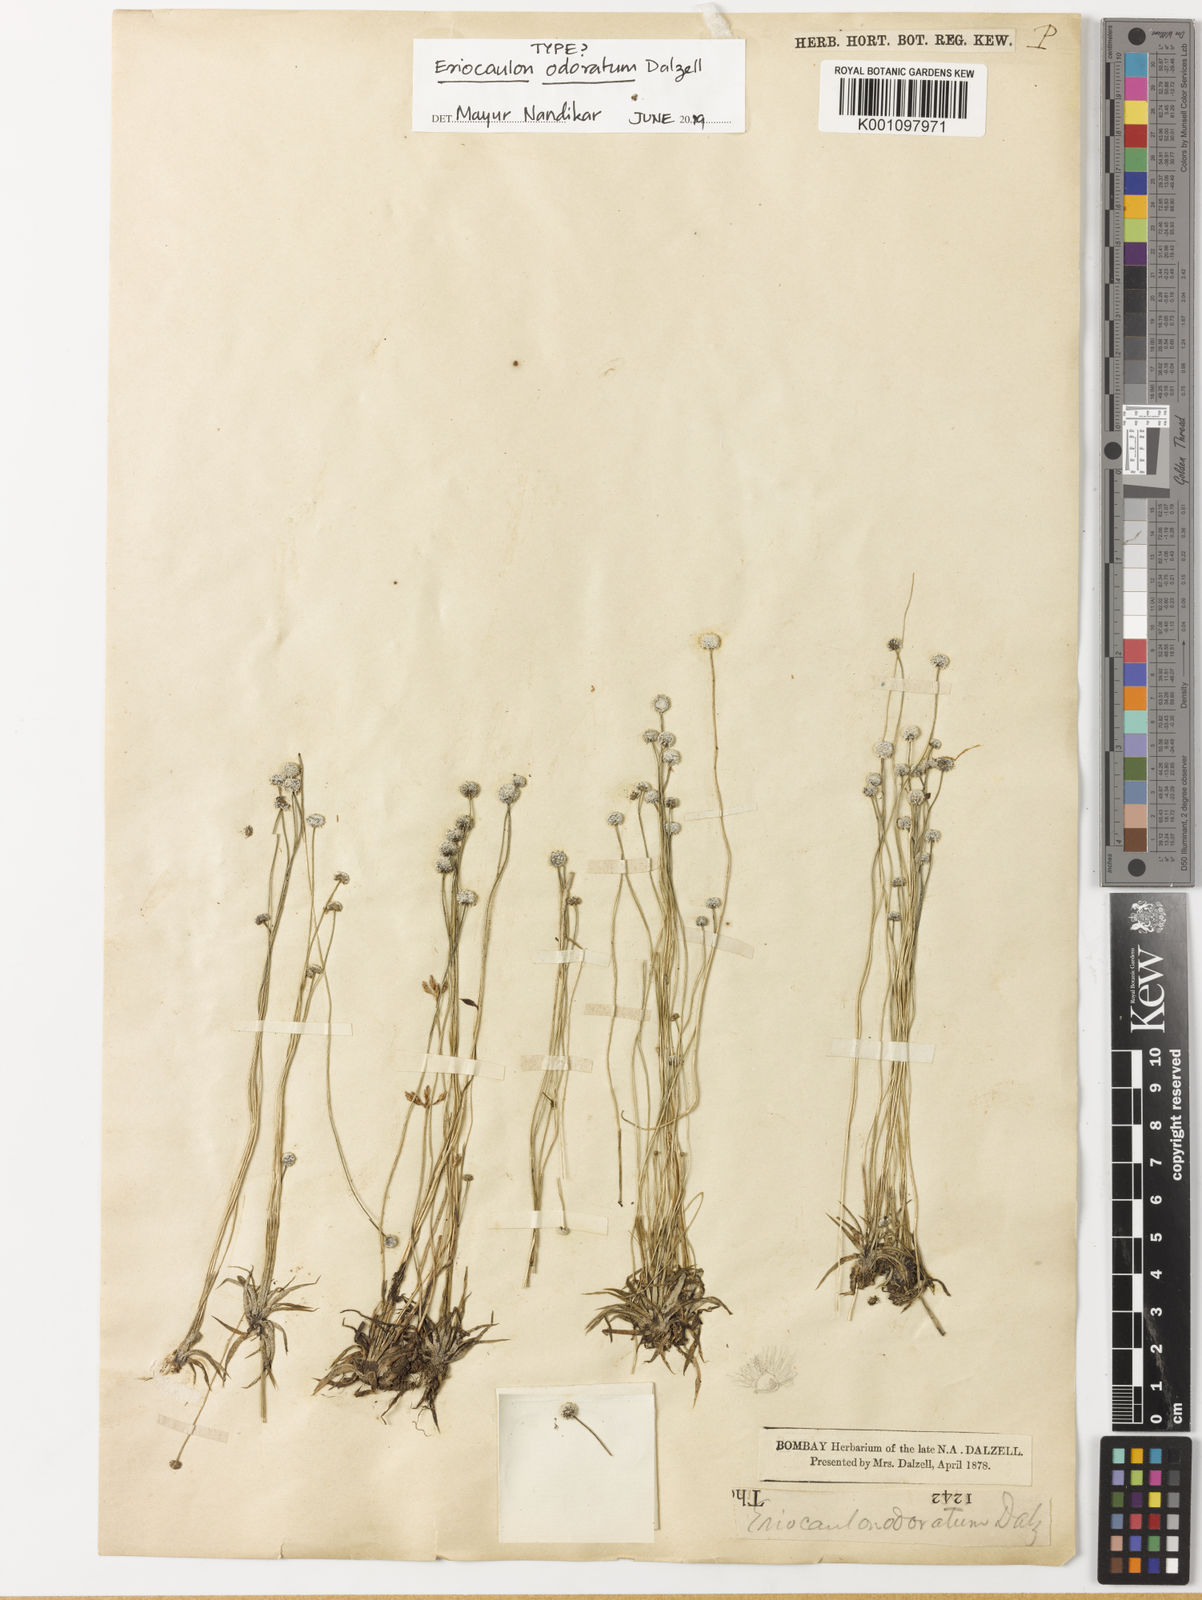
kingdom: Plantae
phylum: Tracheophyta
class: Liliopsida
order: Poales
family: Eriocaulaceae
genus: Eriocaulon
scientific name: Eriocaulon odoratum
